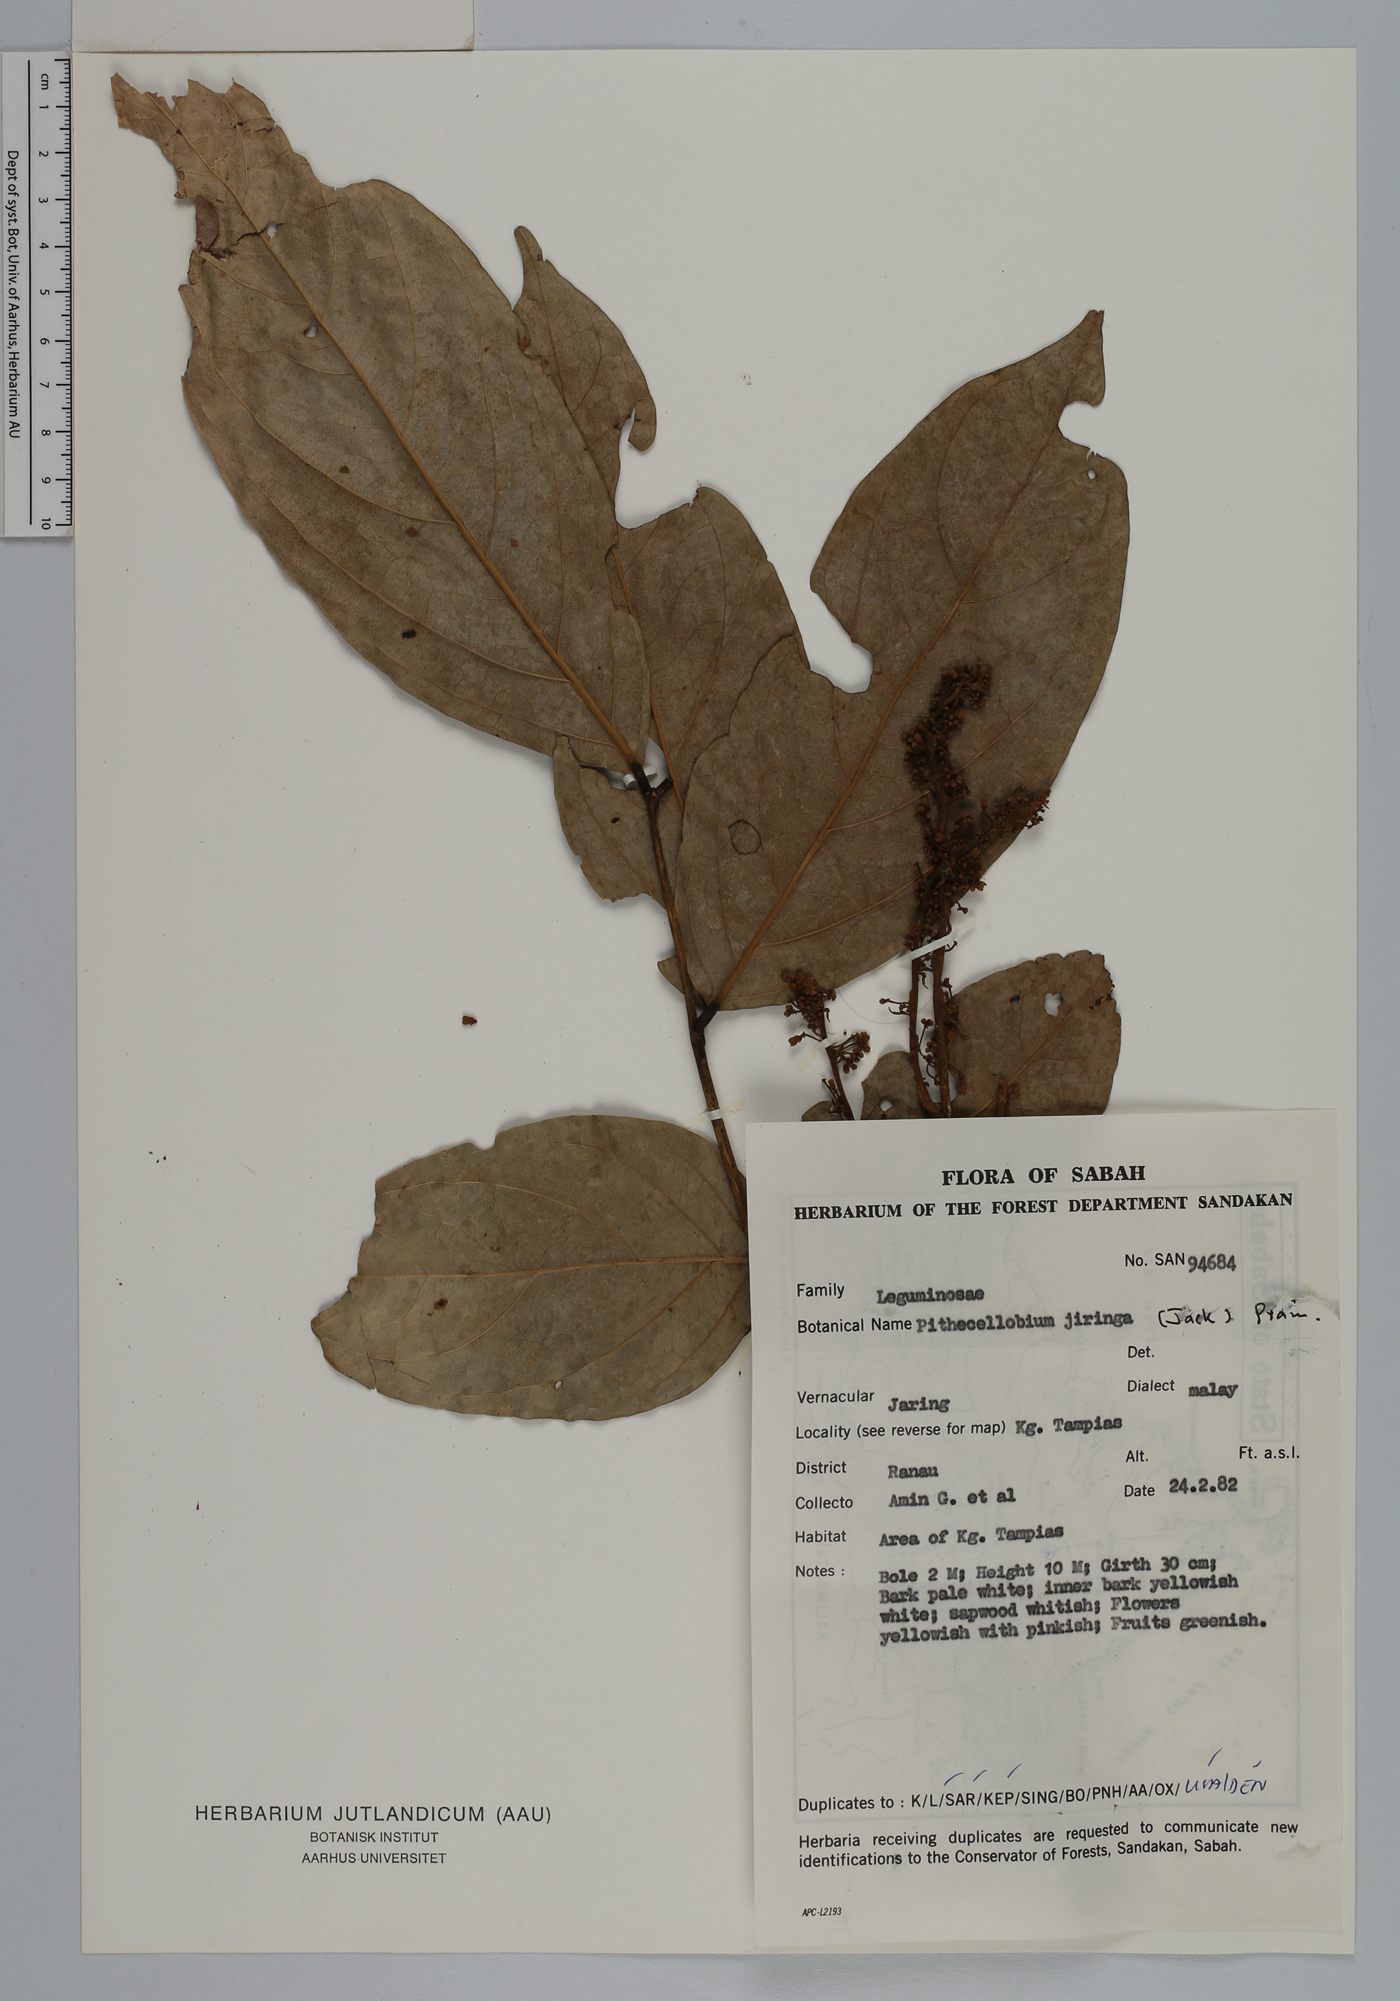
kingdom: Plantae
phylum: Tracheophyta
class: Magnoliopsida
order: Fabales
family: Fabaceae
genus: Archidendron
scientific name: Archidendron jiringa
